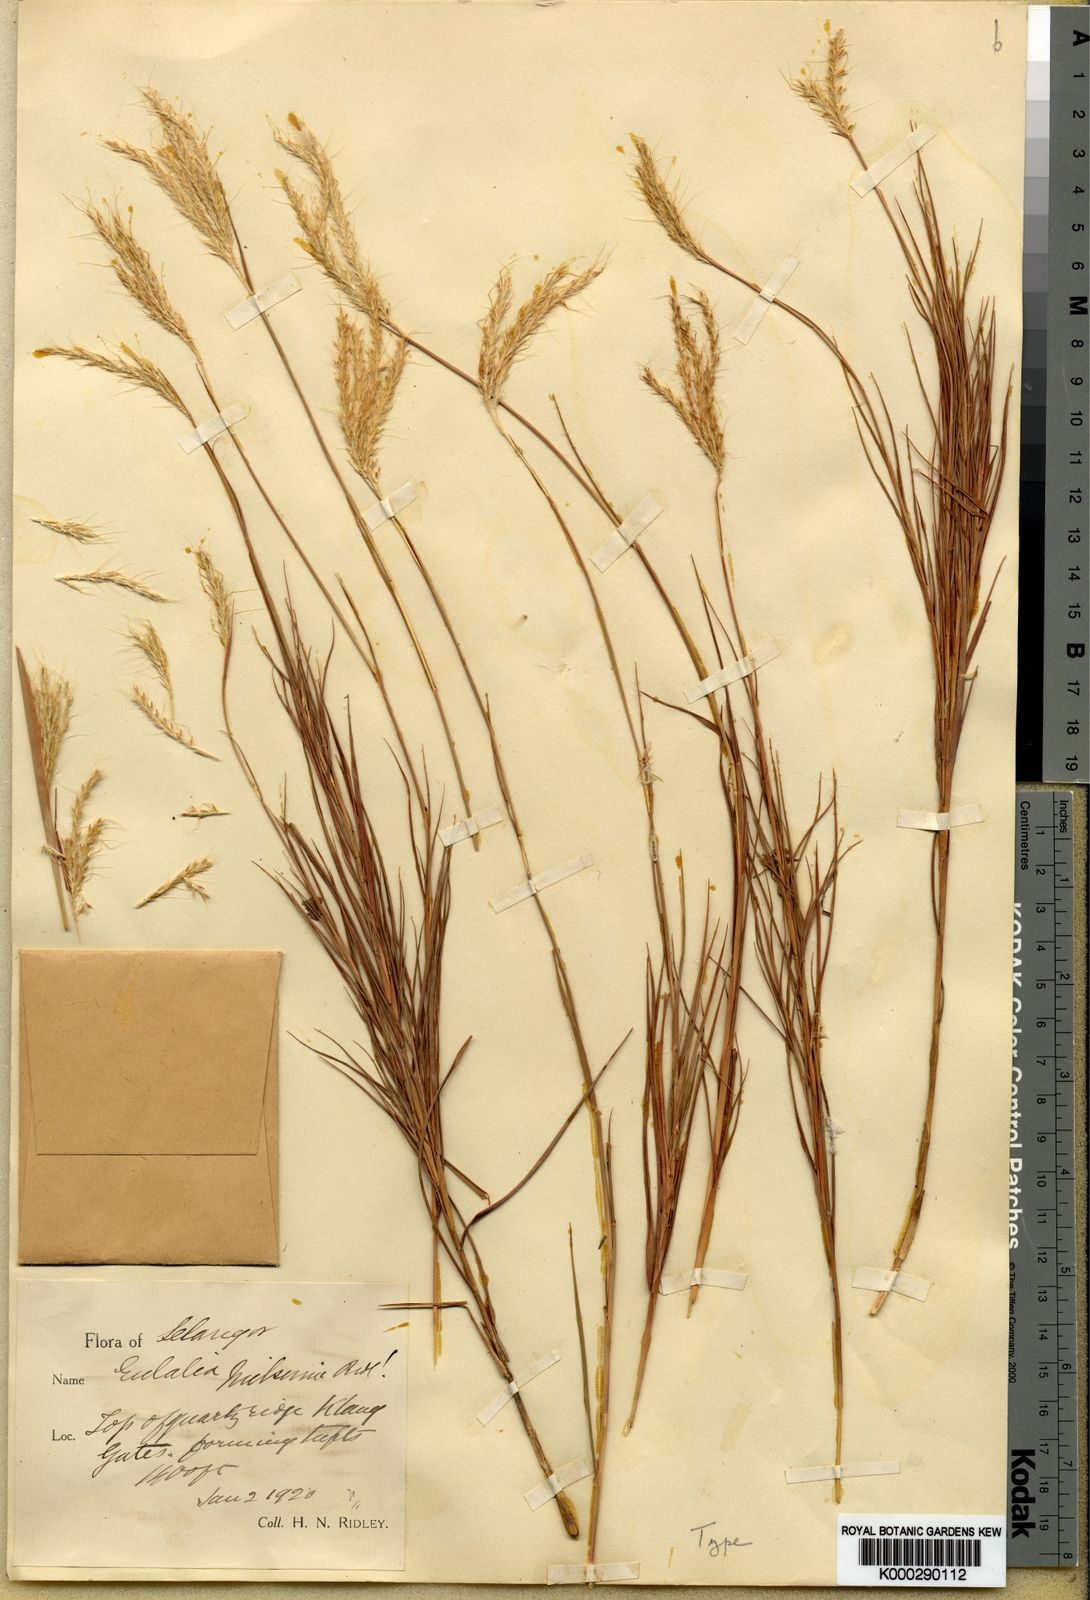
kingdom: Plantae
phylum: Tracheophyta
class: Liliopsida
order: Poales
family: Poaceae
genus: Eulalia
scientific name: Eulalia milsumi
